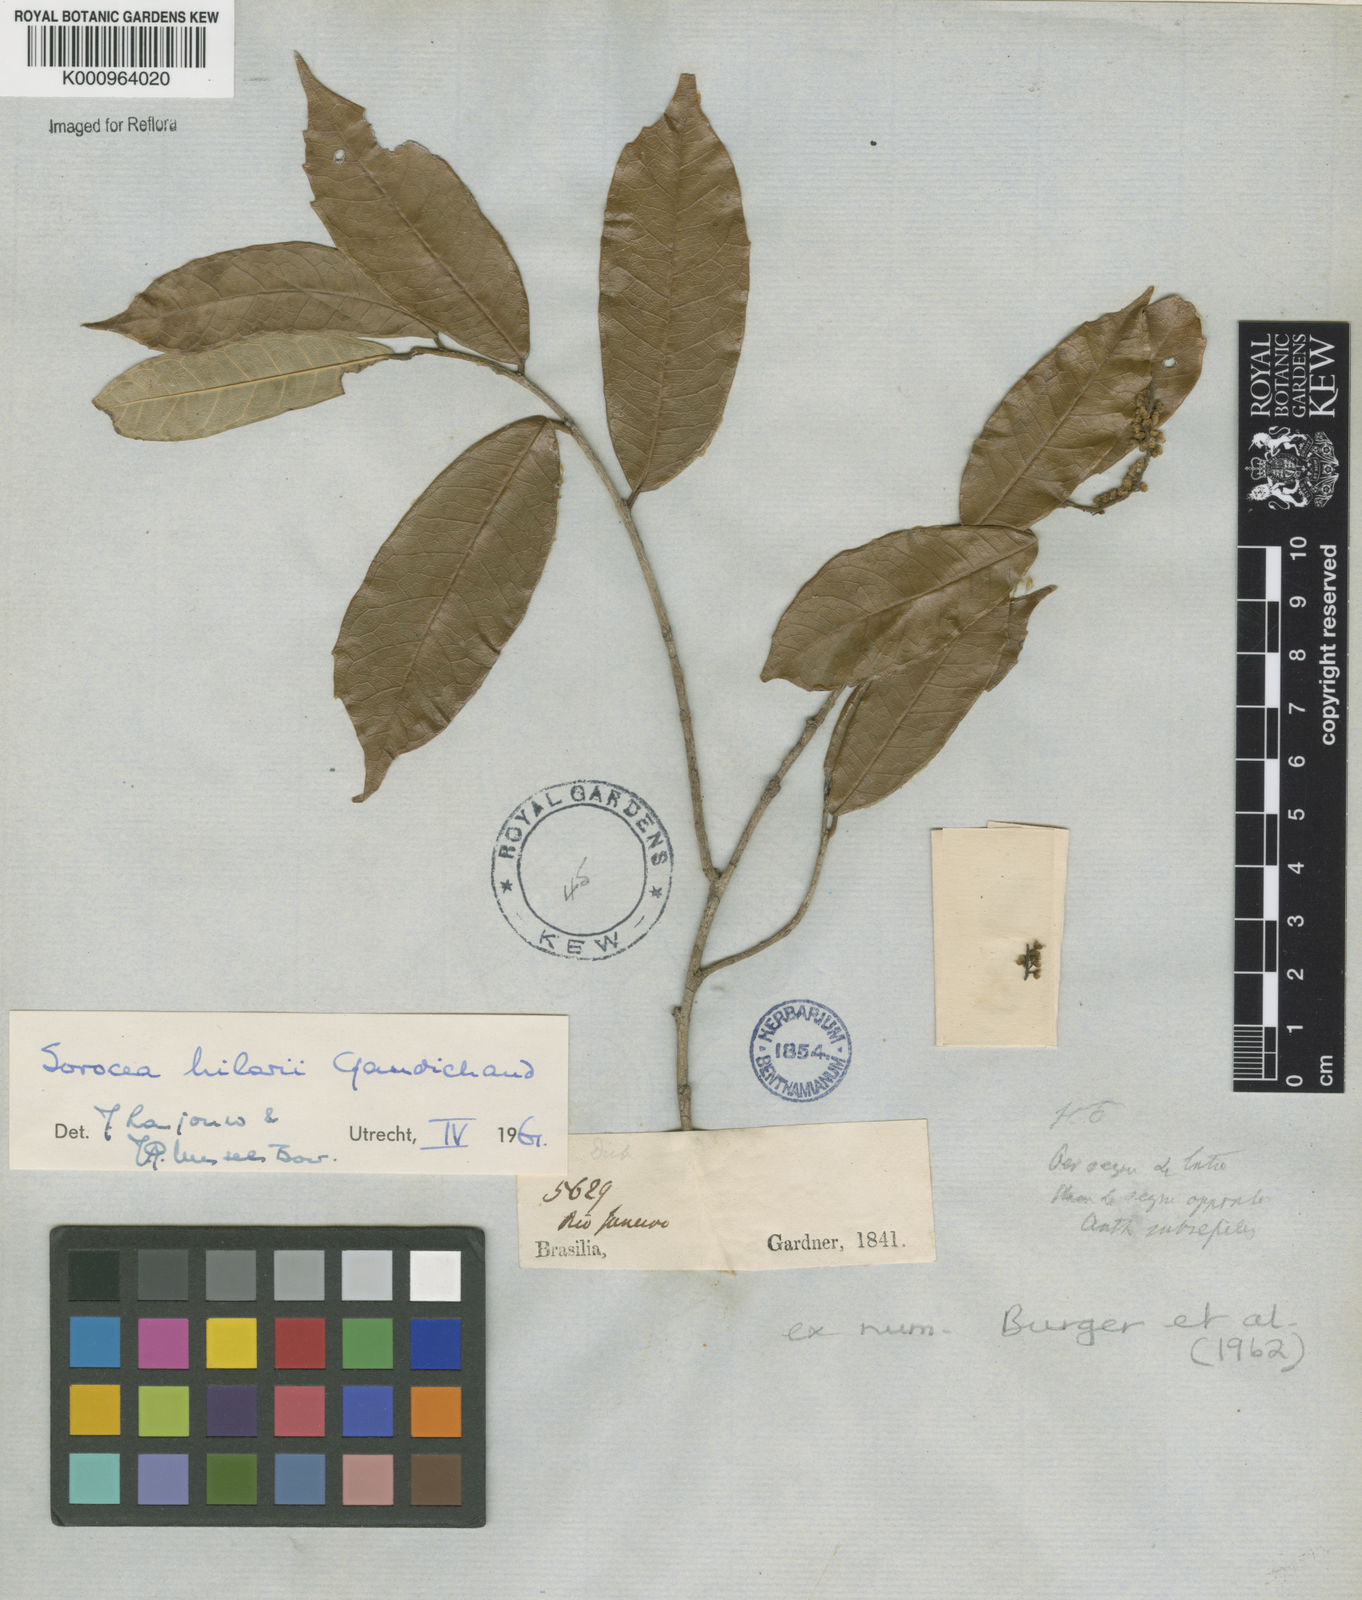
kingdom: Plantae
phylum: Tracheophyta
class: Magnoliopsida
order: Rosales
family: Moraceae
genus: Sorocea
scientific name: Sorocea hilarii
